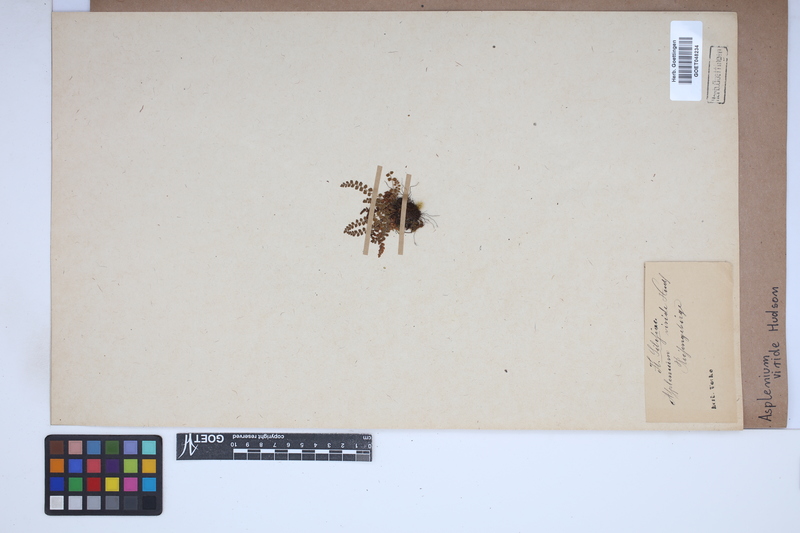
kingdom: Plantae
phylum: Tracheophyta
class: Polypodiopsida
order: Polypodiales
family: Aspleniaceae
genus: Asplenium
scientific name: Asplenium viride
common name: Green spleenwort
